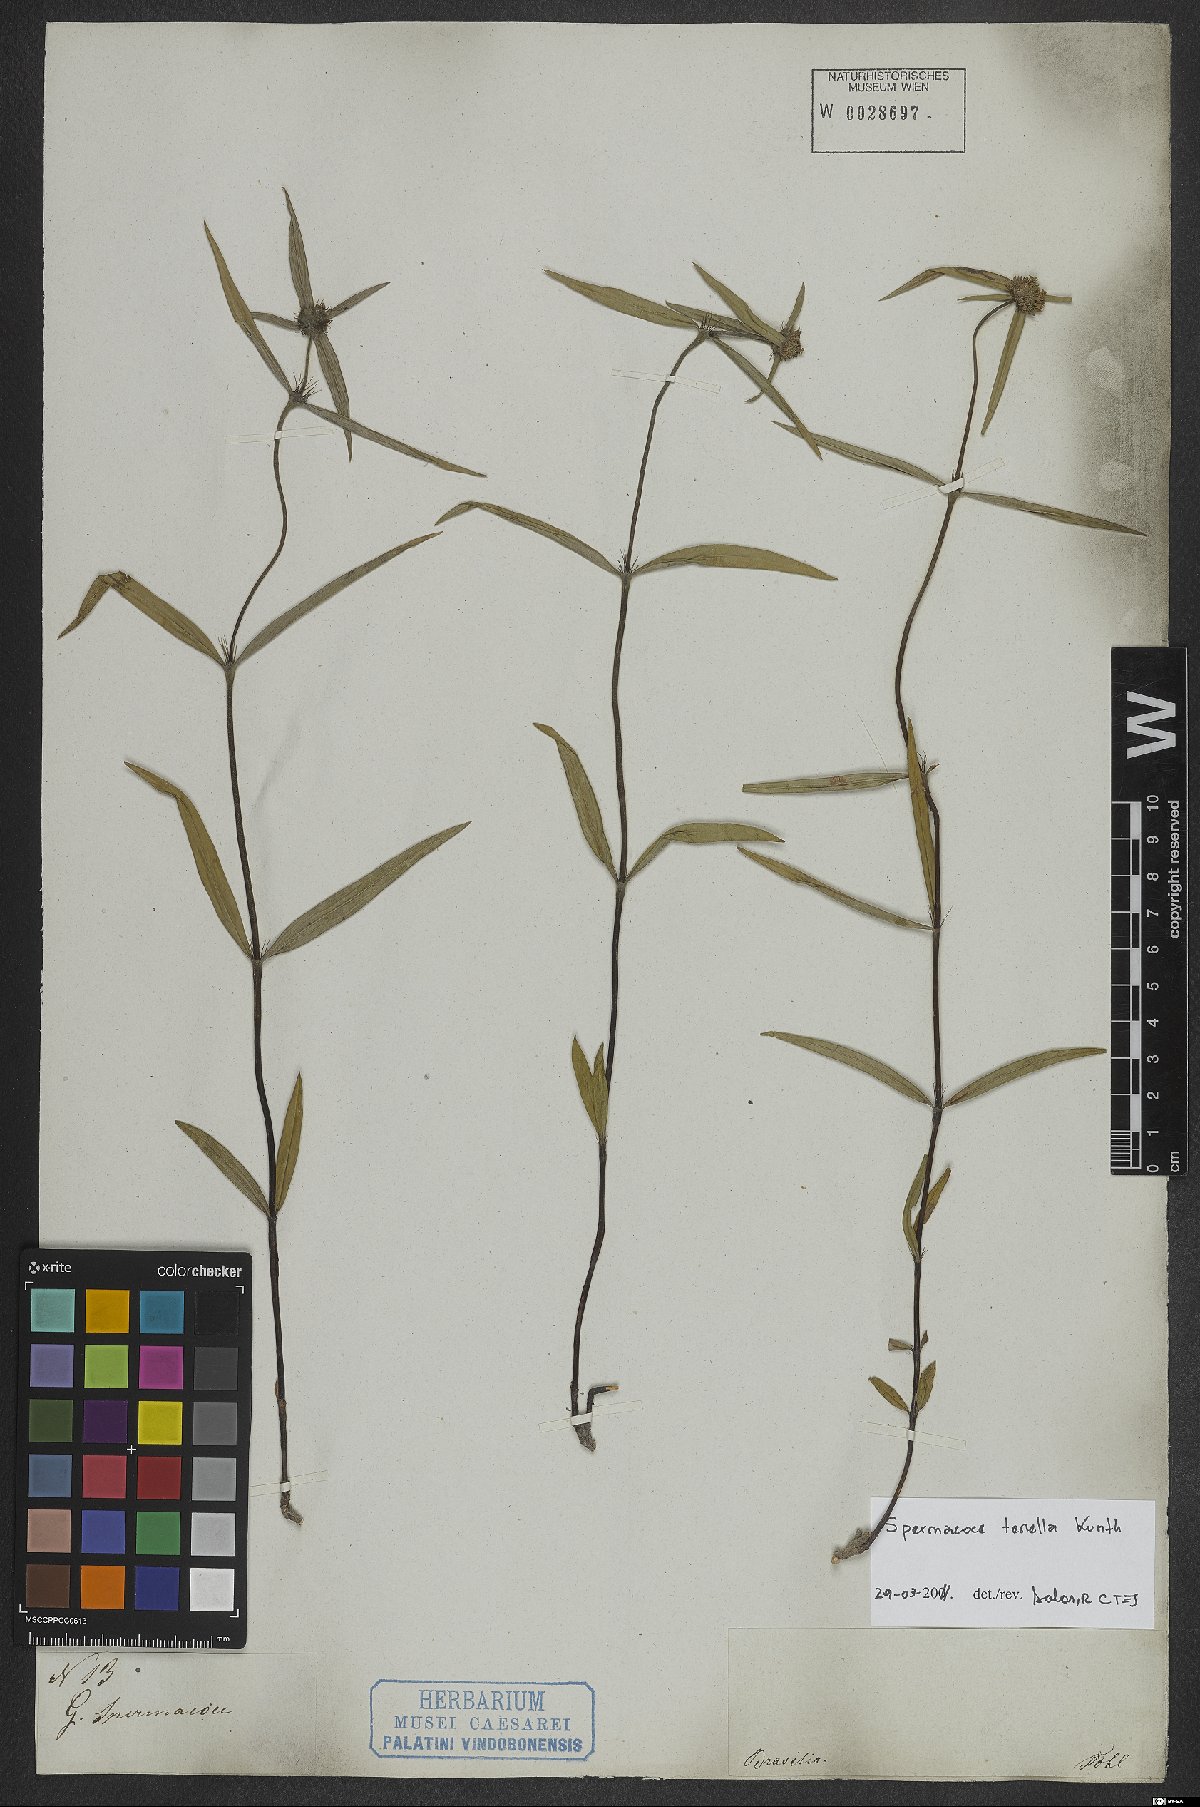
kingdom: Plantae
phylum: Tracheophyta
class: Magnoliopsida
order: Gentianales
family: Rubiaceae
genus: Spermacoce
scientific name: Spermacoce orinocensis
